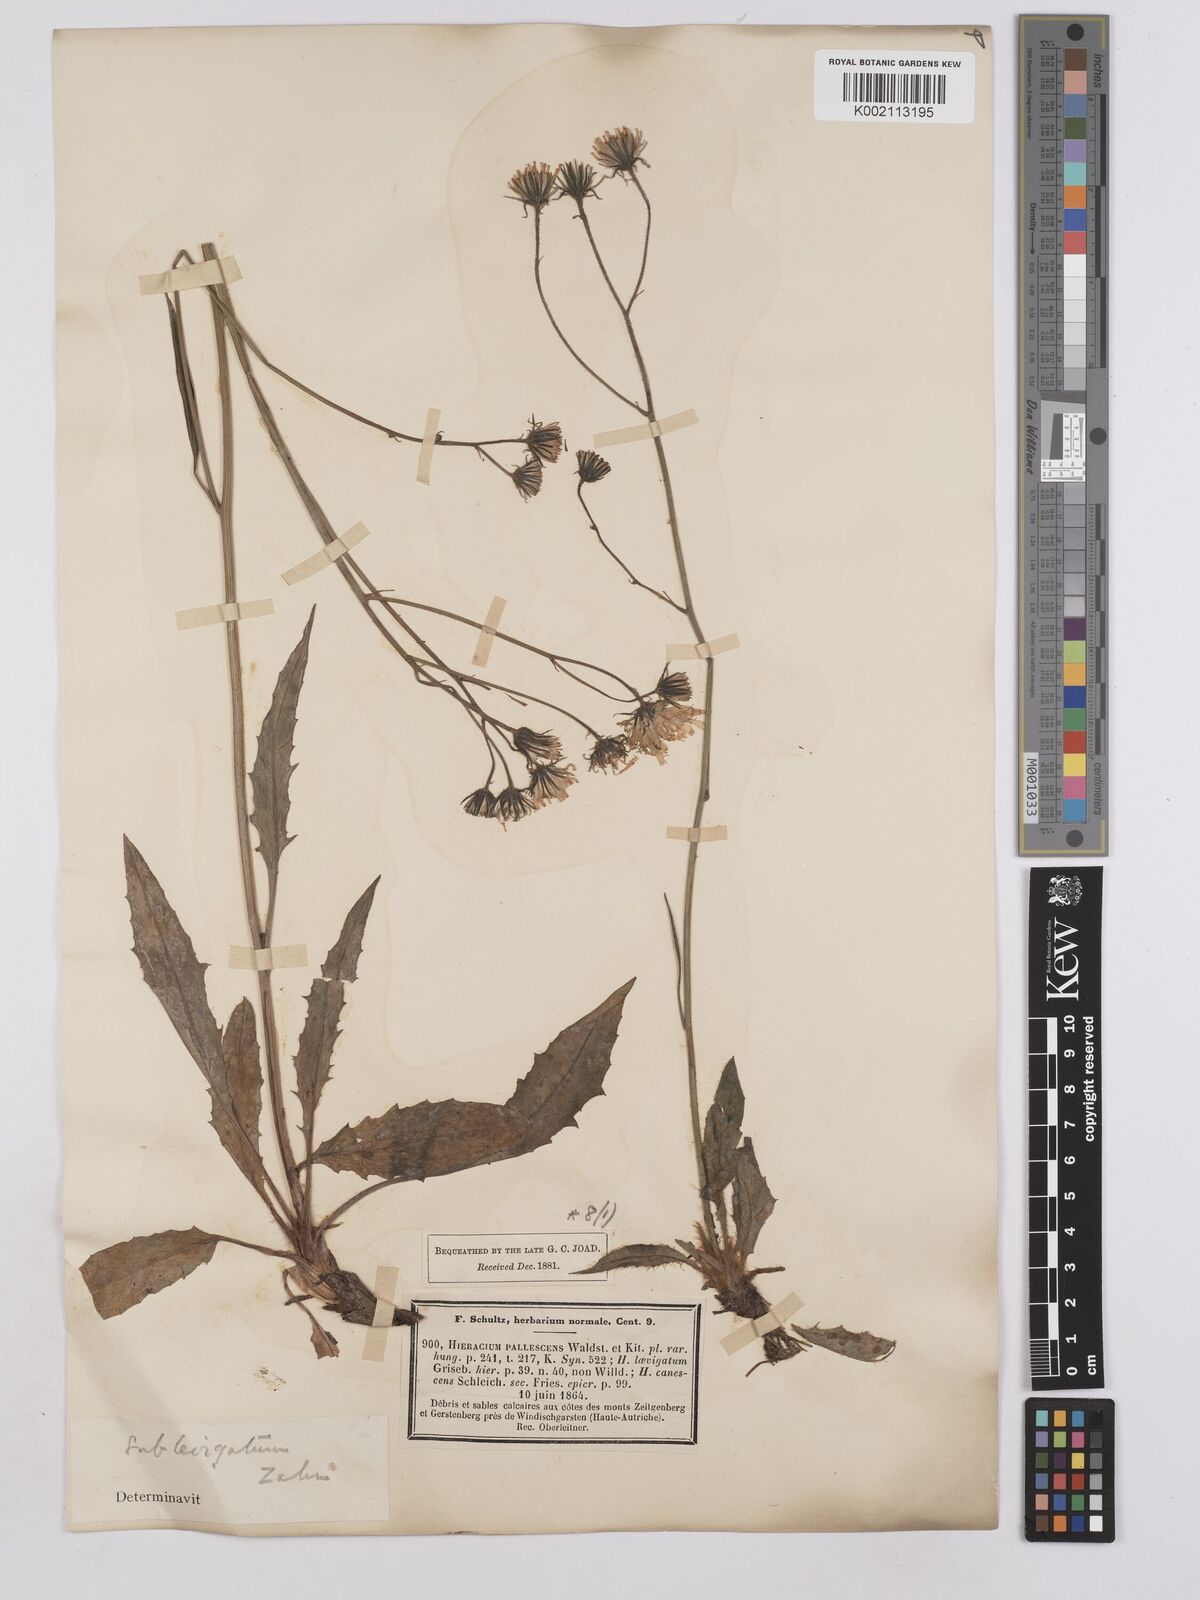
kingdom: Plantae
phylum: Tracheophyta
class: Magnoliopsida
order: Asterales
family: Asteraceae
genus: Crepis
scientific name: Crepis blattarioides
